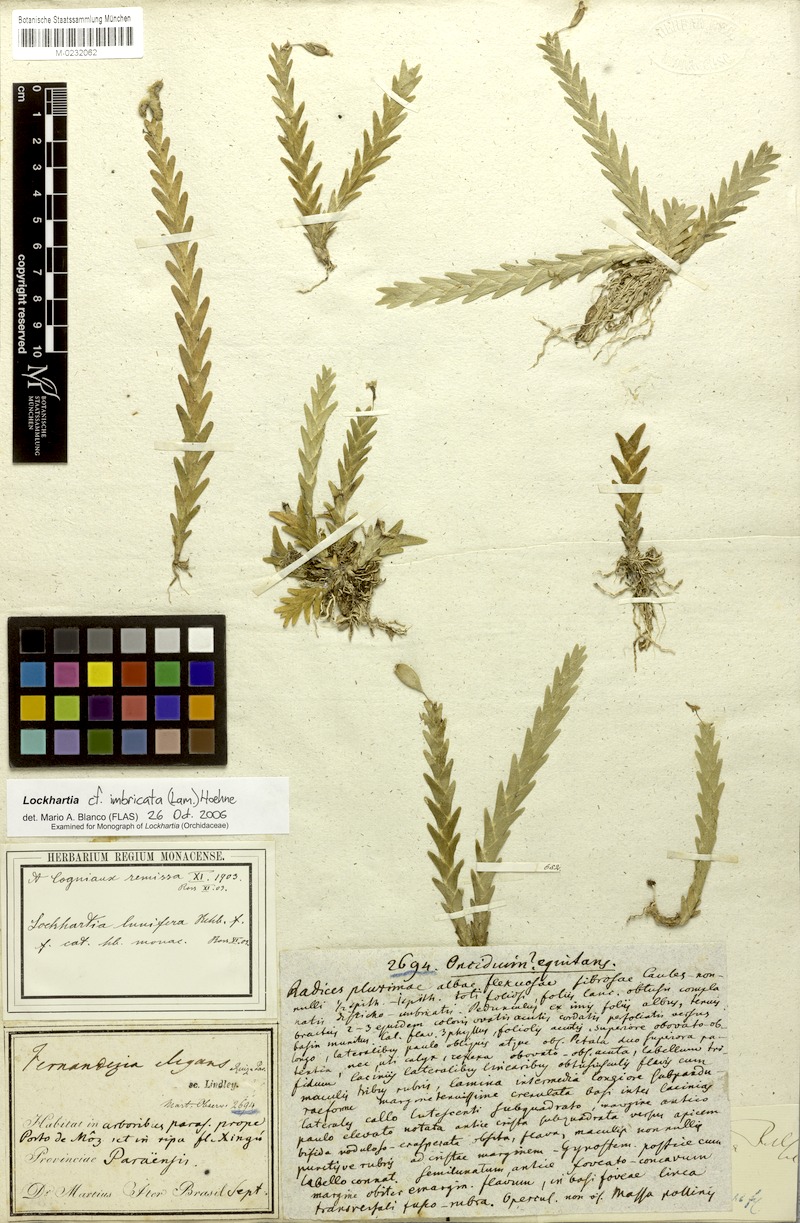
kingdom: Plantae
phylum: Tracheophyta
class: Liliopsida
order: Asparagales
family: Orchidaceae
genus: Lockhartia
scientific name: Lockhartia imbricata
